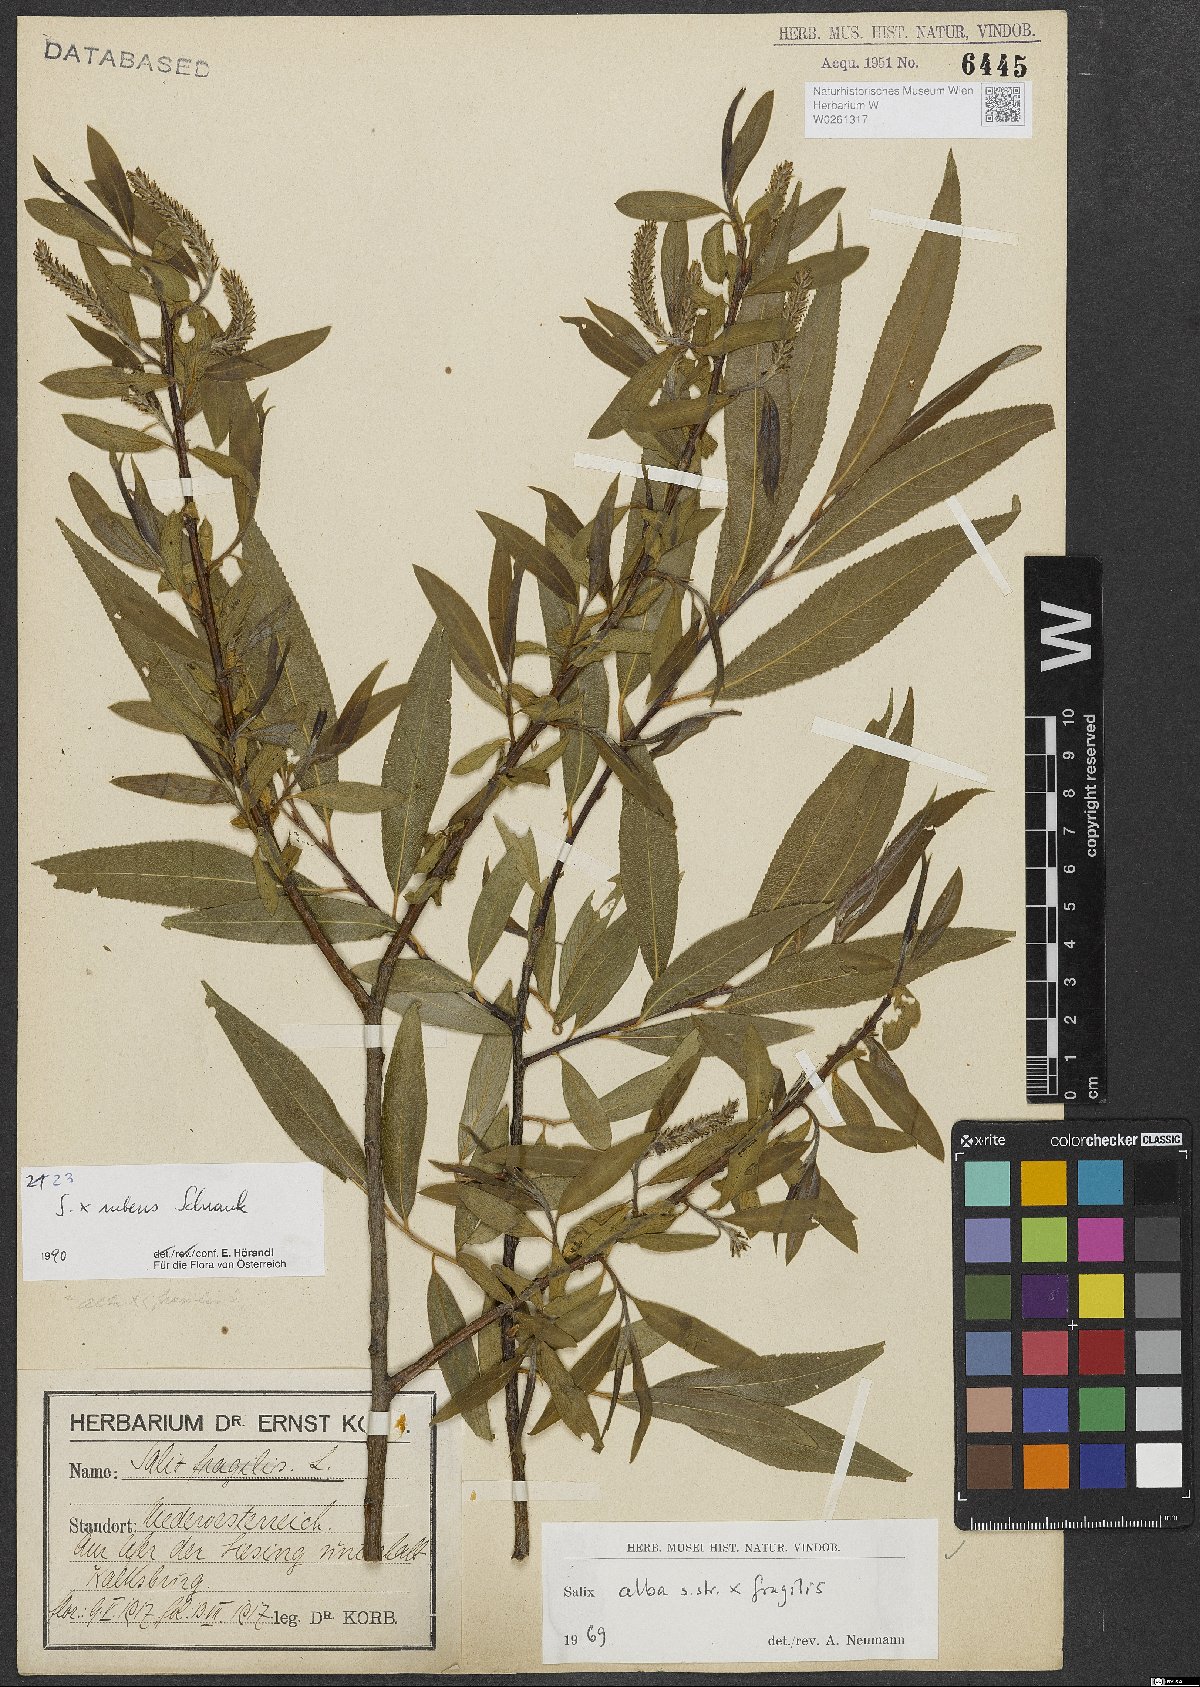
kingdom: Plantae
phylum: Tracheophyta
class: Magnoliopsida
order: Malpighiales
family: Salicaceae
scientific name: Salicaceae
